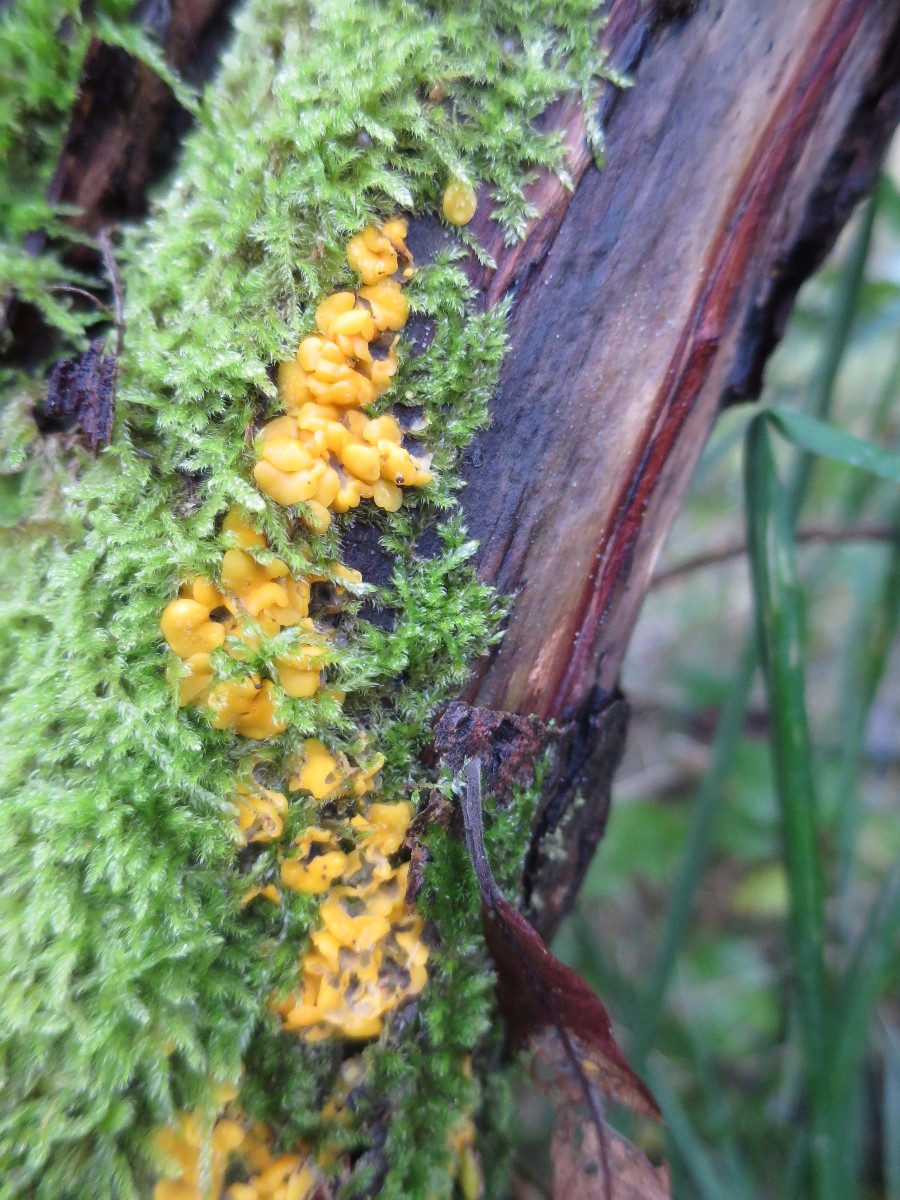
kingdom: Fungi
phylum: Ascomycota
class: Leotiomycetes
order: Helotiales
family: Helotiaceae
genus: Hymenoscyphus
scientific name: Hymenoscyphus
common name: stilkskive
